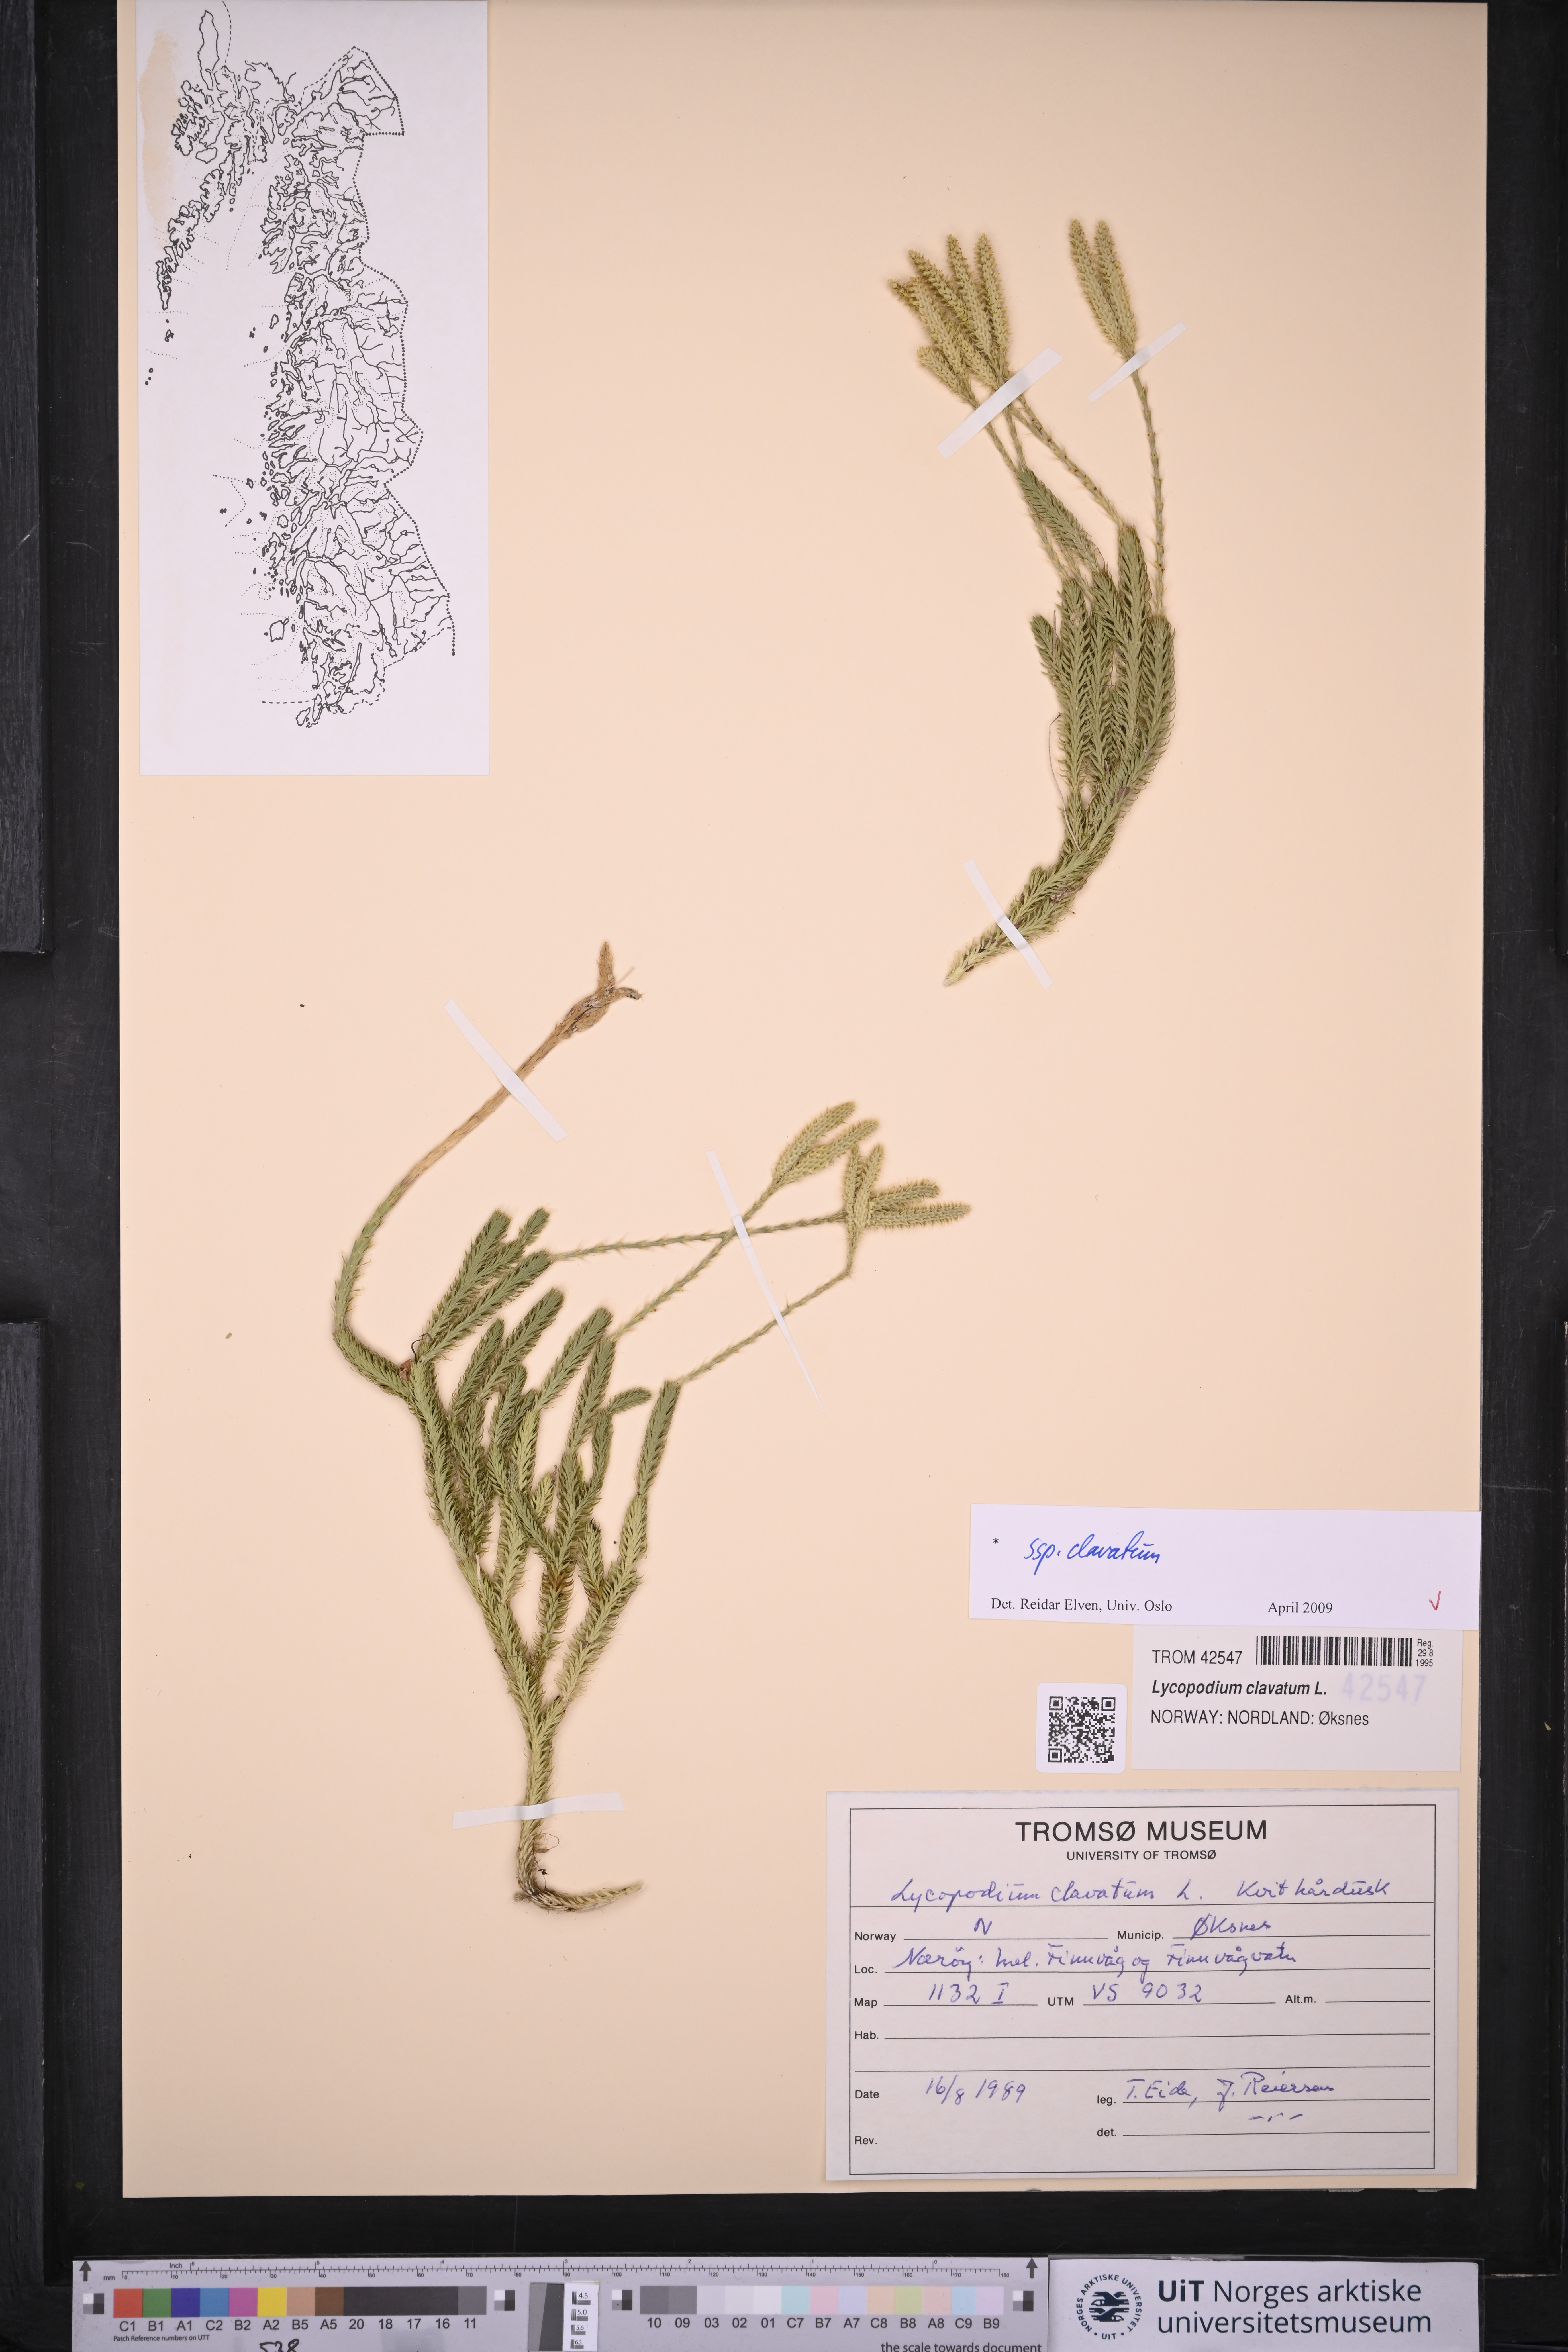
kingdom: Plantae
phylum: Tracheophyta
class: Lycopodiopsida
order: Lycopodiales
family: Lycopodiaceae
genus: Lycopodium
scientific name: Lycopodium clavatum
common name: Stag's-horn clubmoss
